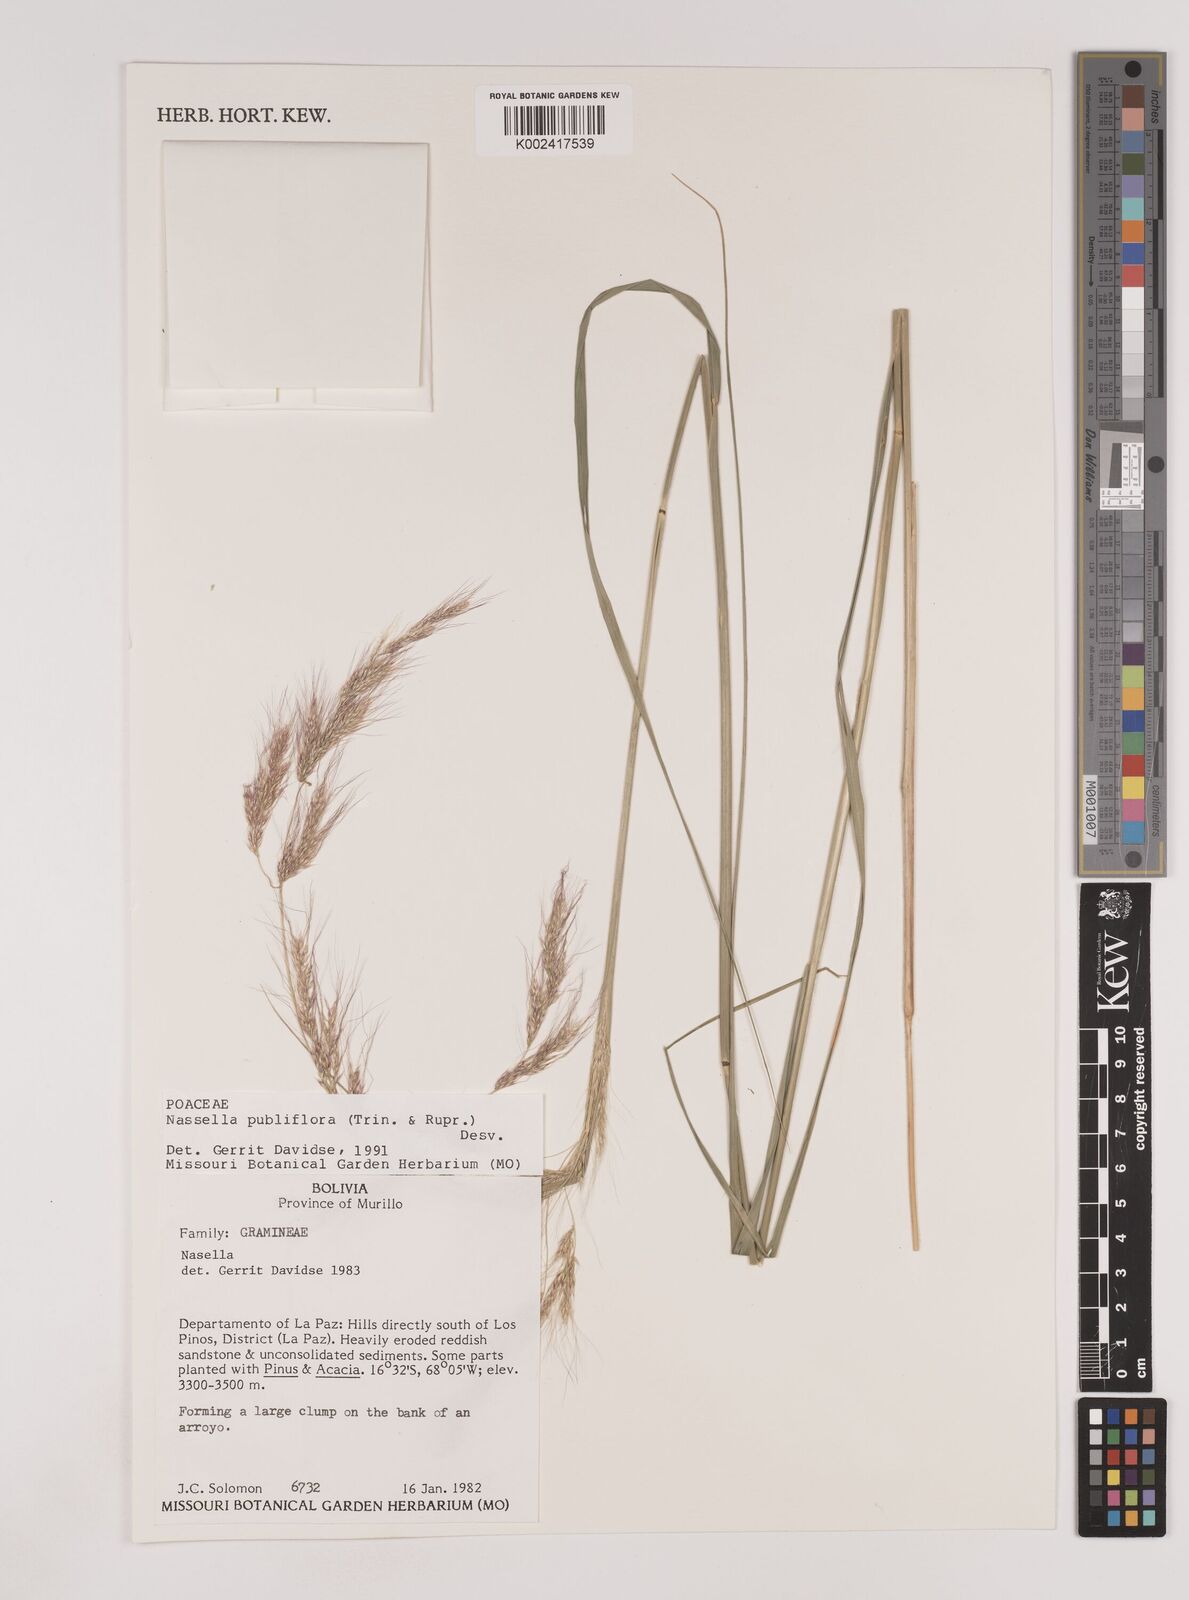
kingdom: Plantae
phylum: Tracheophyta
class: Liliopsida
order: Poales
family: Poaceae
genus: Nassella
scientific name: Nassella pubiflora
